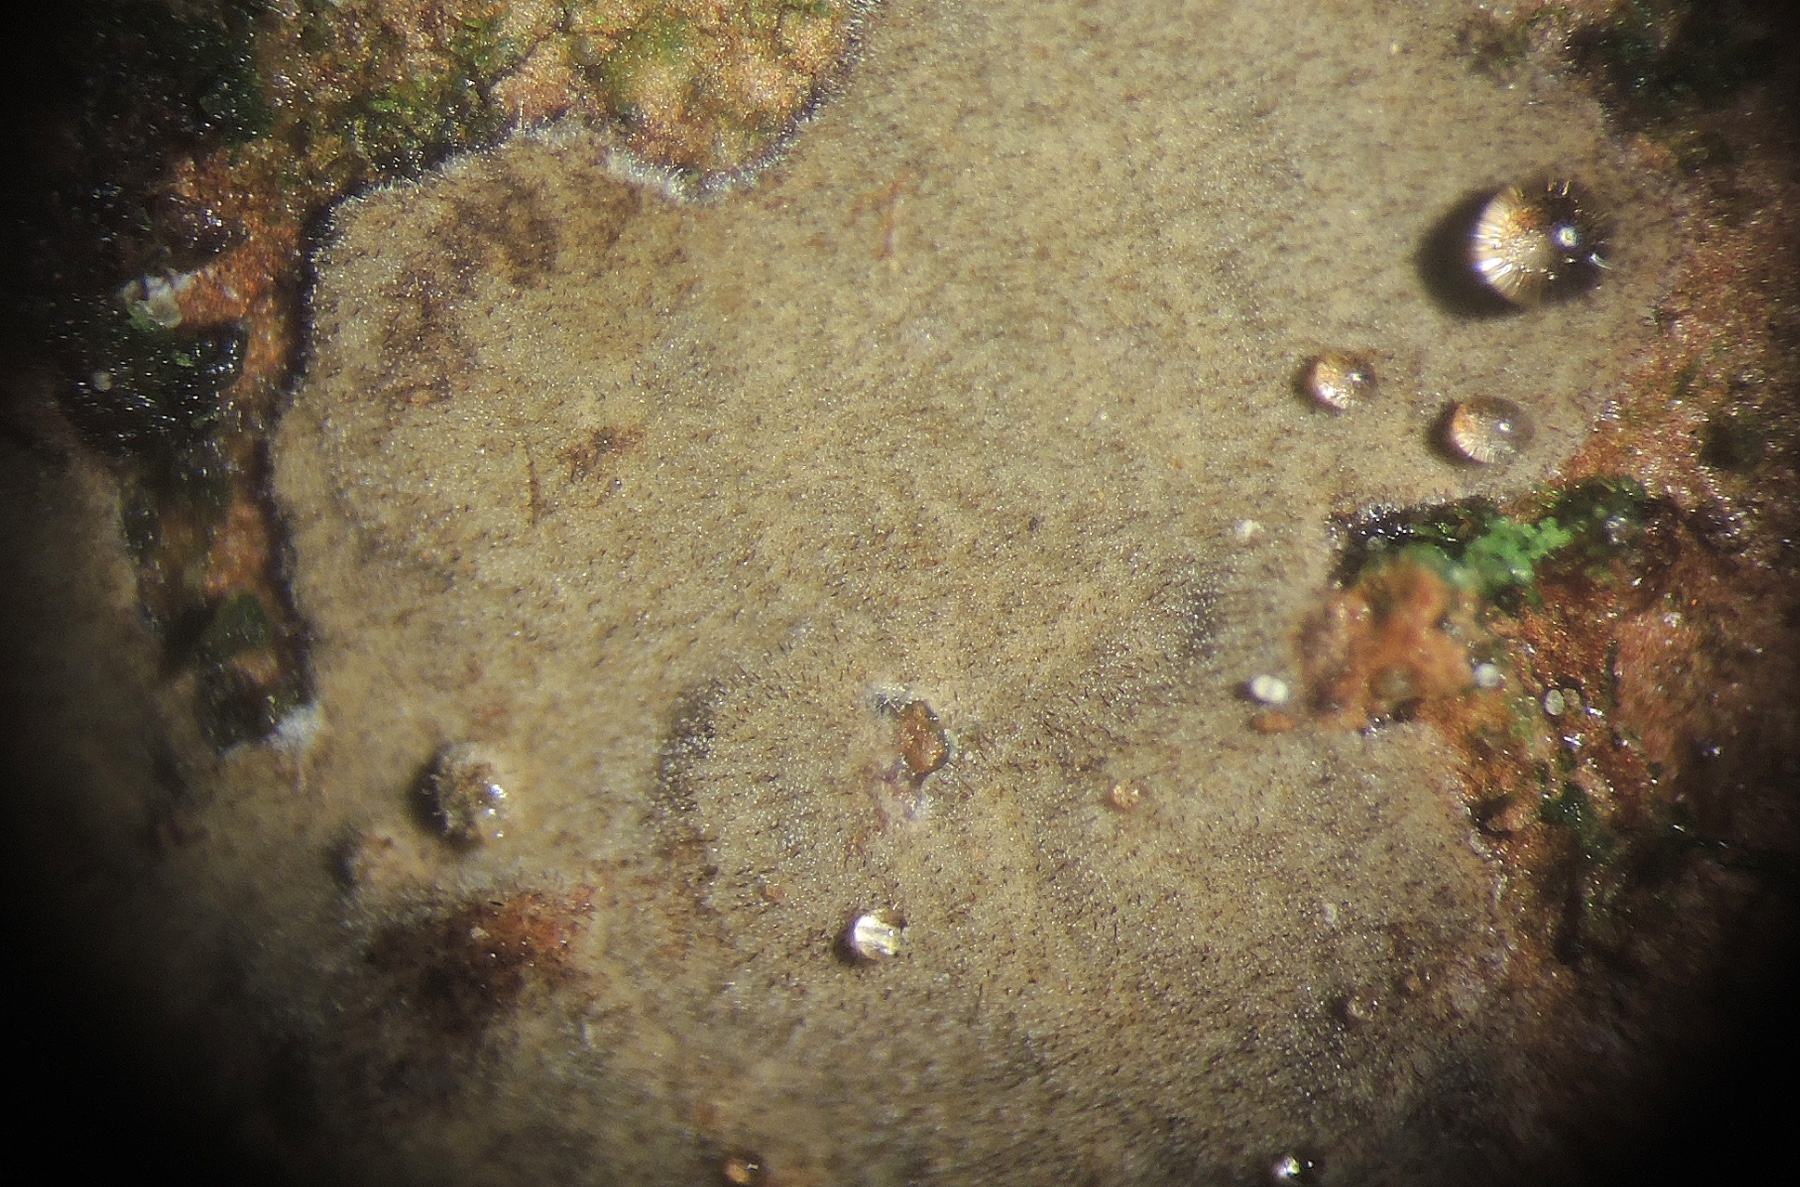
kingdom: Fungi
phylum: Basidiomycota
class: Agaricomycetes
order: Hymenochaetales
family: Hymenochaetaceae
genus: Hymenochaete
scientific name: Hymenochaete carpatica
